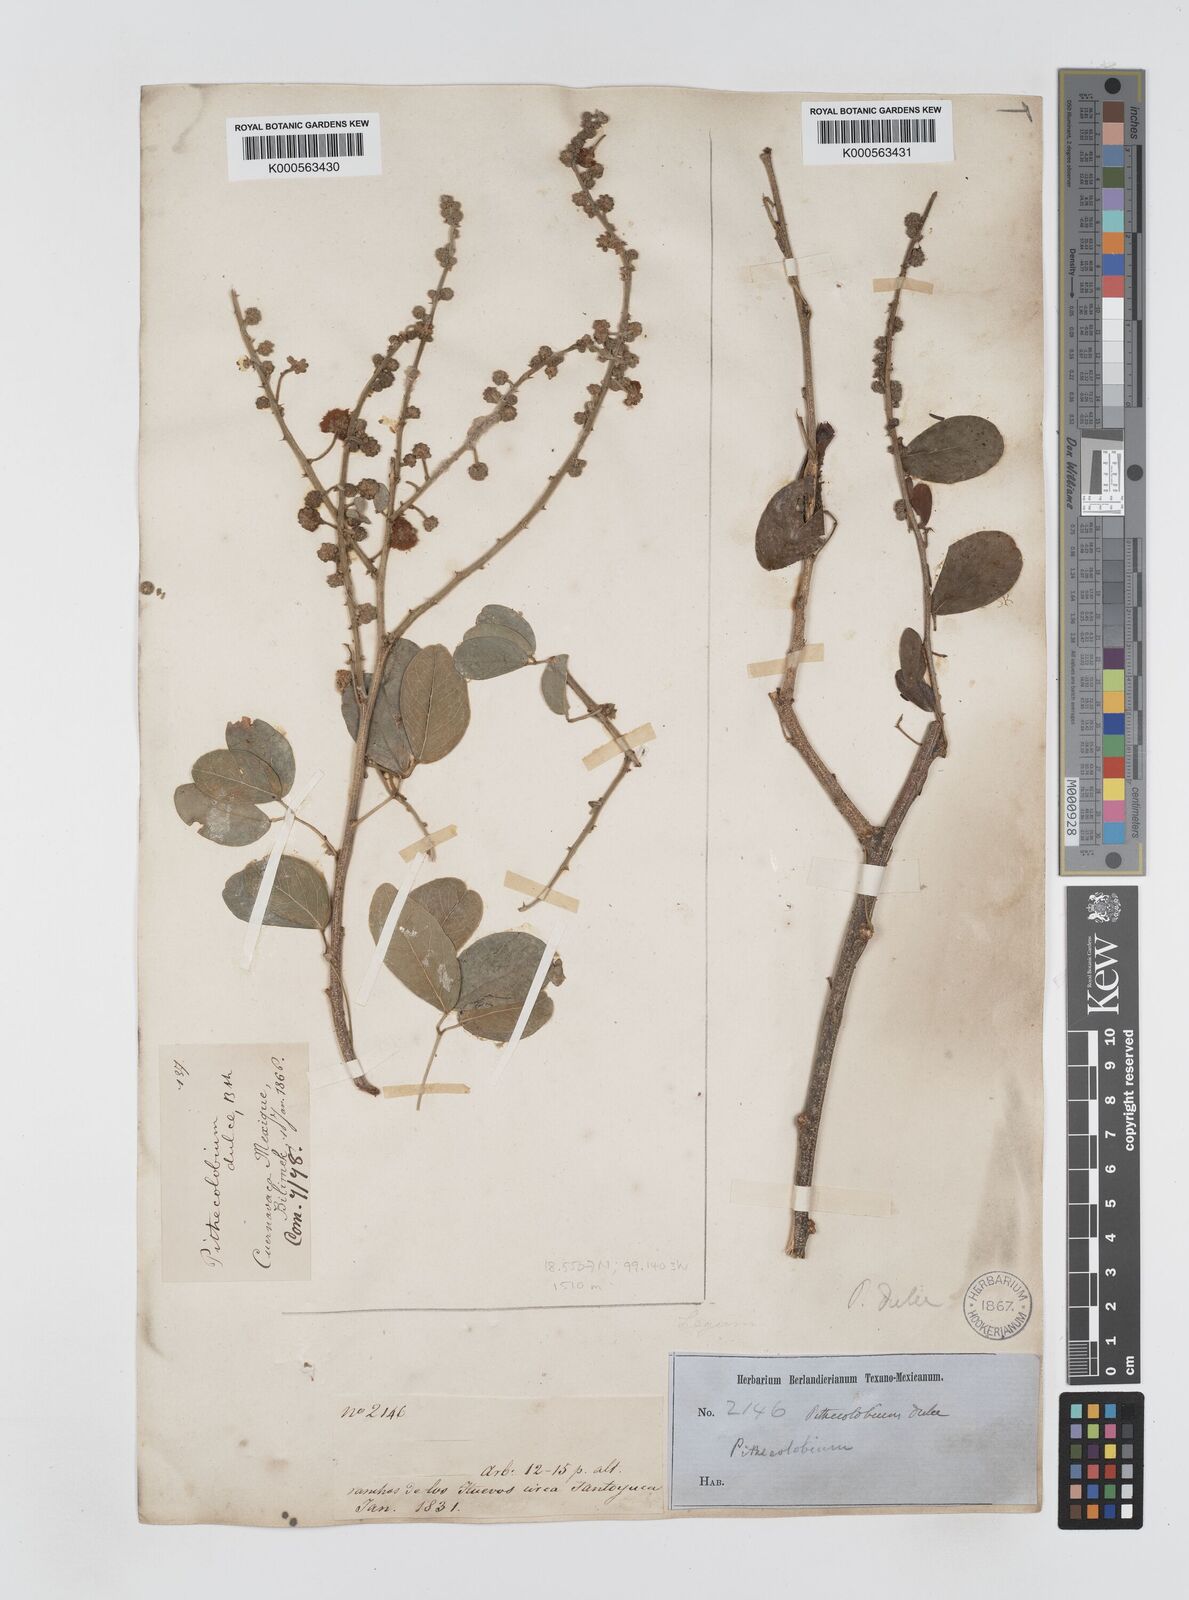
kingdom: Plantae
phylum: Tracheophyta
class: Magnoliopsida
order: Fabales
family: Fabaceae
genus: Pithecellobium
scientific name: Pithecellobium dulce
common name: Monkeypod
